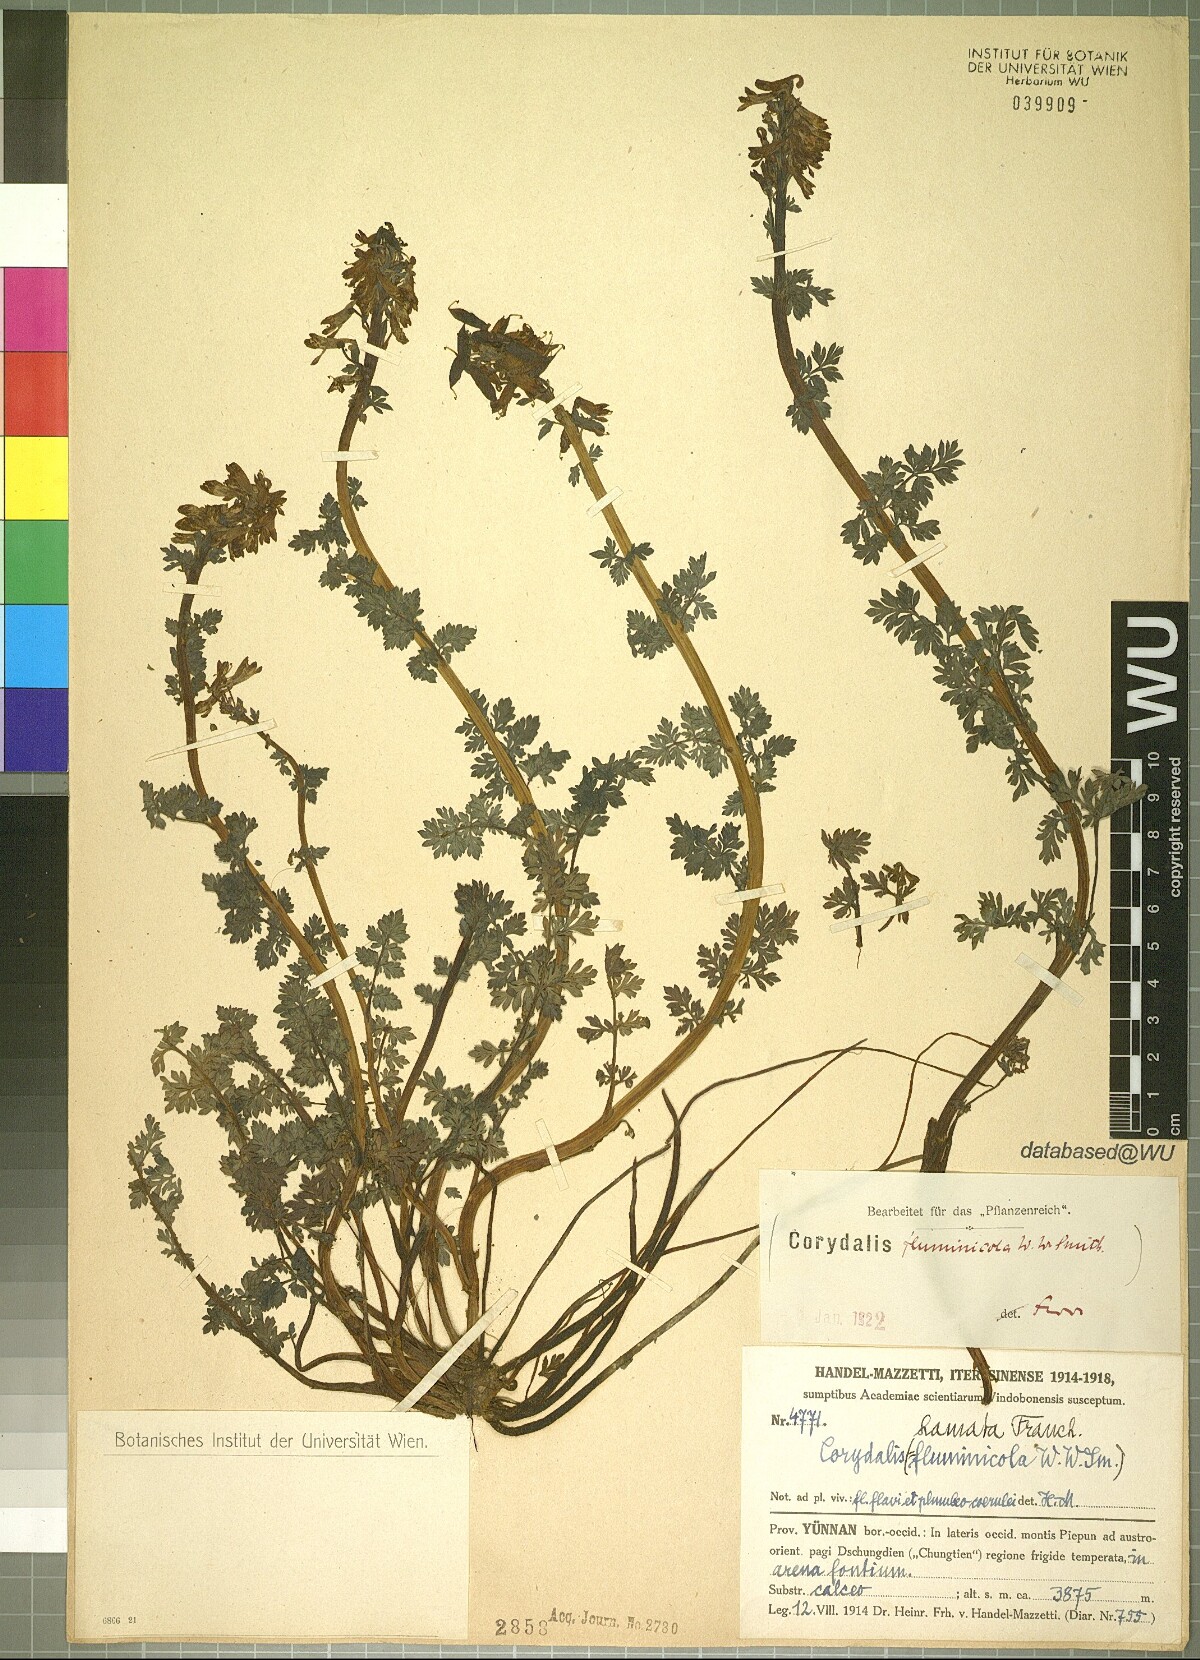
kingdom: Plantae
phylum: Tracheophyta
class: Magnoliopsida
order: Ranunculales
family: Papaveraceae
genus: Corydalis
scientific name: Corydalis hamata
